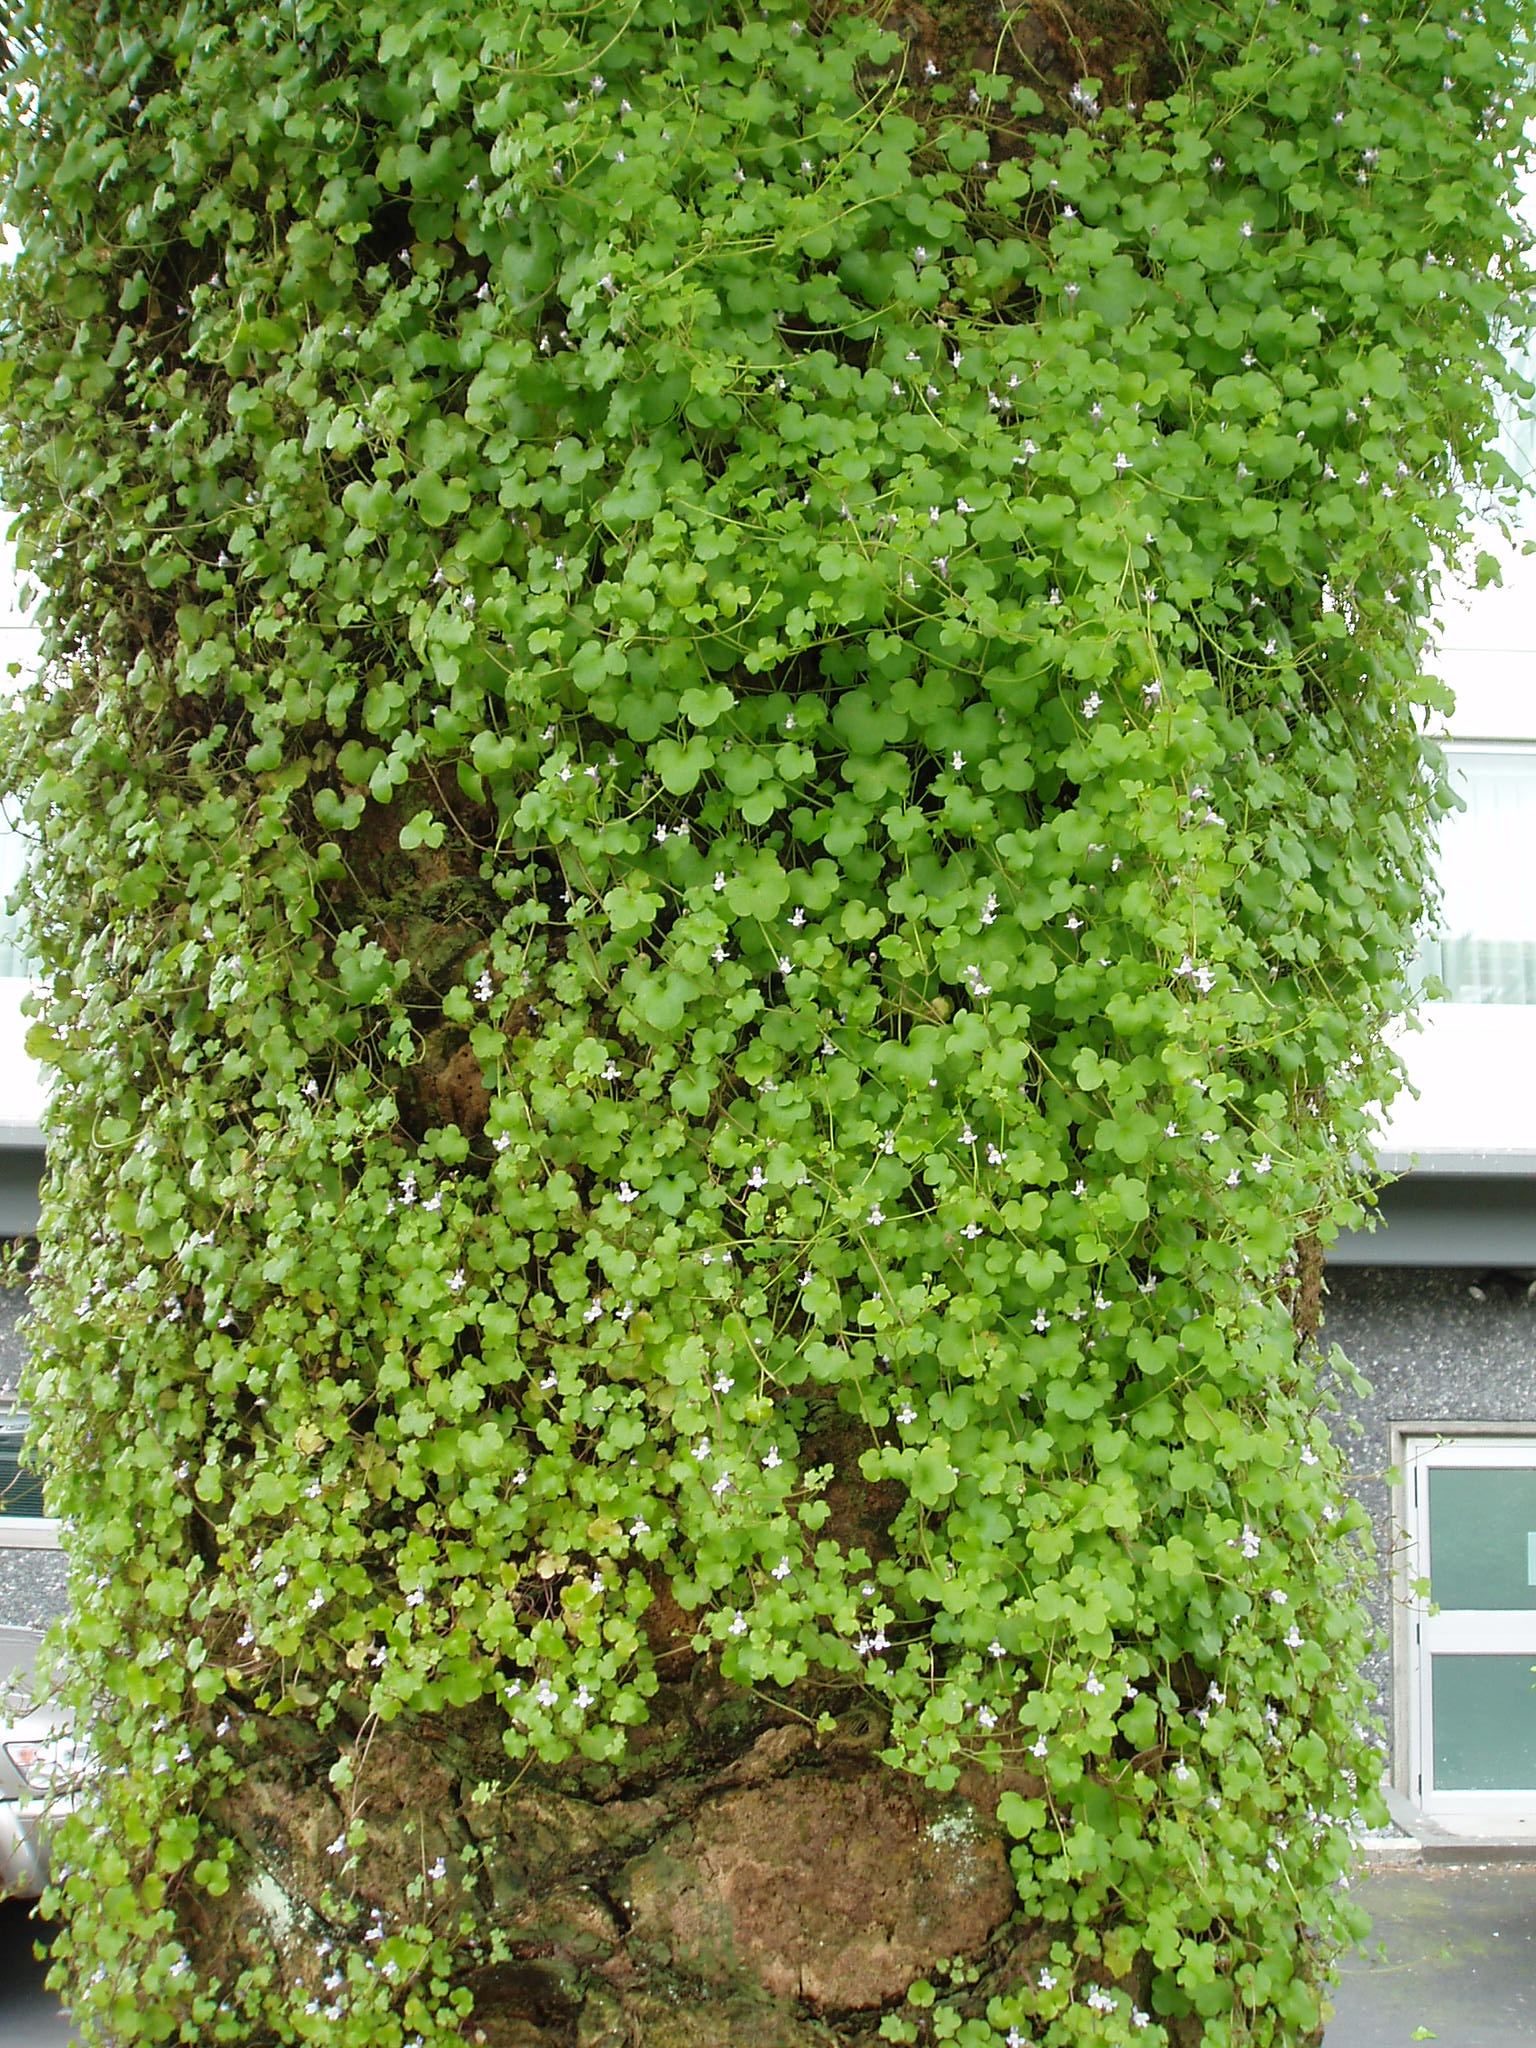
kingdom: Plantae
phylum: Tracheophyta
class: Magnoliopsida
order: Lamiales
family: Plantaginaceae
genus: Cymbalaria
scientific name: Cymbalaria muralis
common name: Ivy-leaved toadflax
